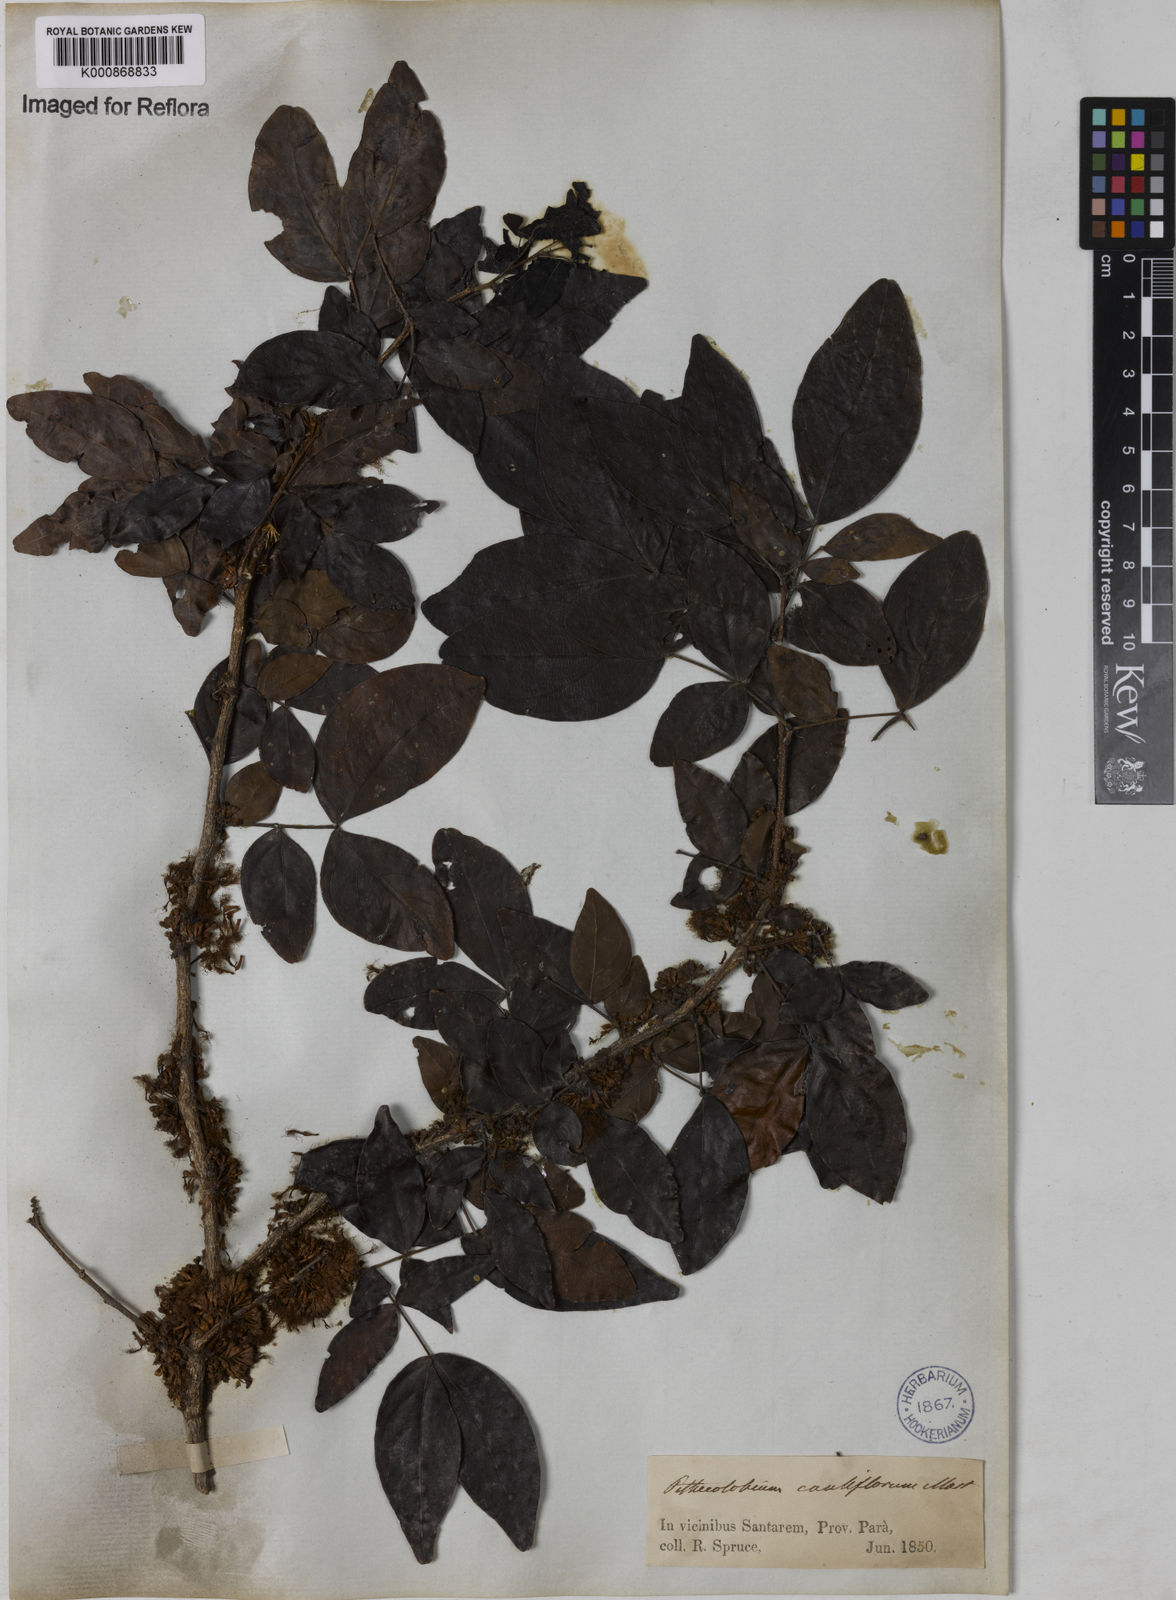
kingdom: Plantae
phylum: Tracheophyta
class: Magnoliopsida
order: Fabales
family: Fabaceae
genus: Zygia
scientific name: Zygia
